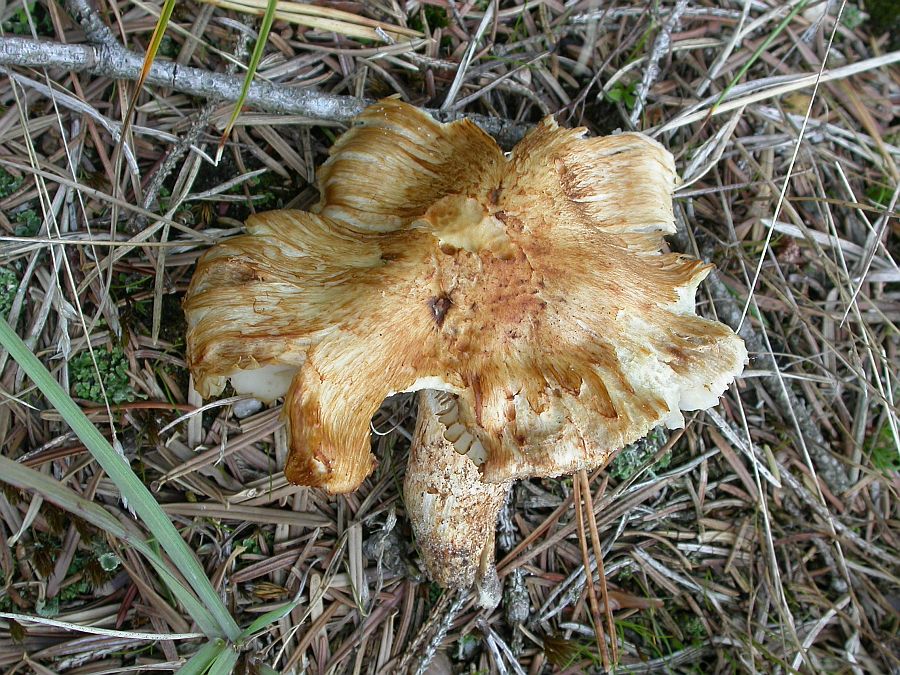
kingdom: Fungi
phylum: Basidiomycota
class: Agaricomycetes
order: Agaricales
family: Tricholomataceae
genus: Tricholoma
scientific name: Tricholoma apium
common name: suppe-ridderhat
